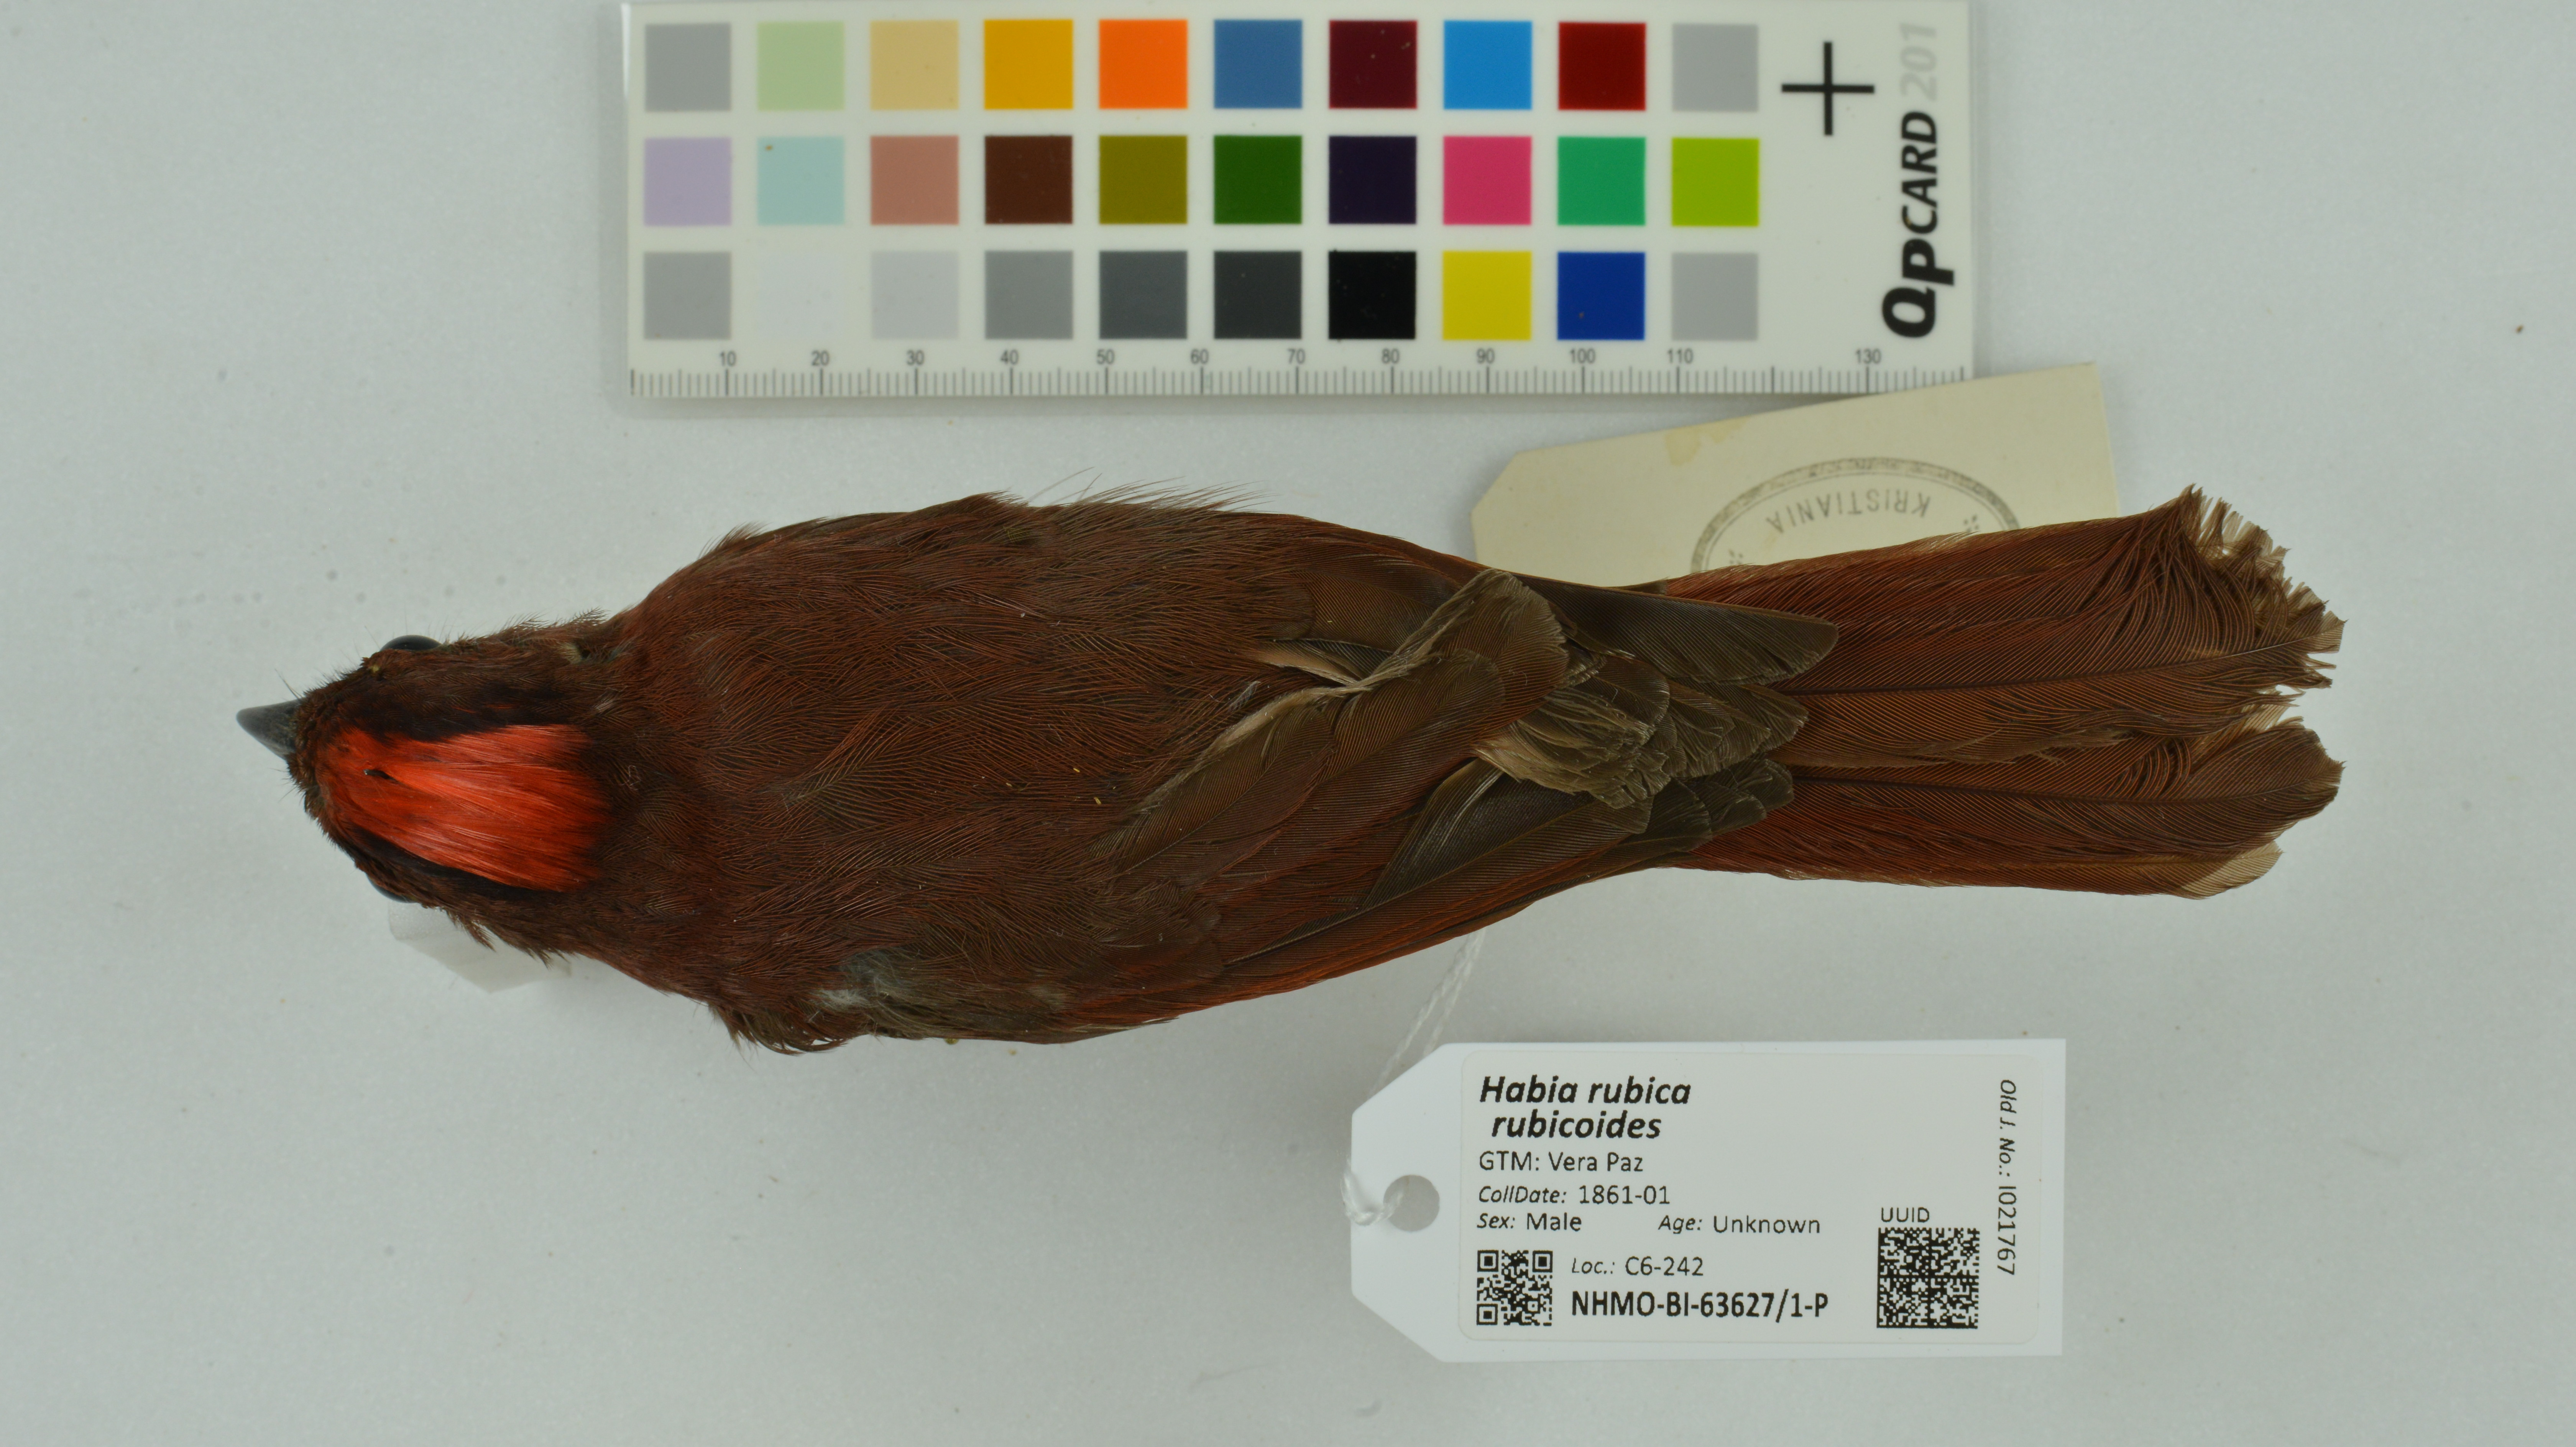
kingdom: Animalia
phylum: Chordata
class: Aves
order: Passeriformes
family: Cardinalidae
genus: Habia
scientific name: Habia rubica
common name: Red-crowned ant-tanager
